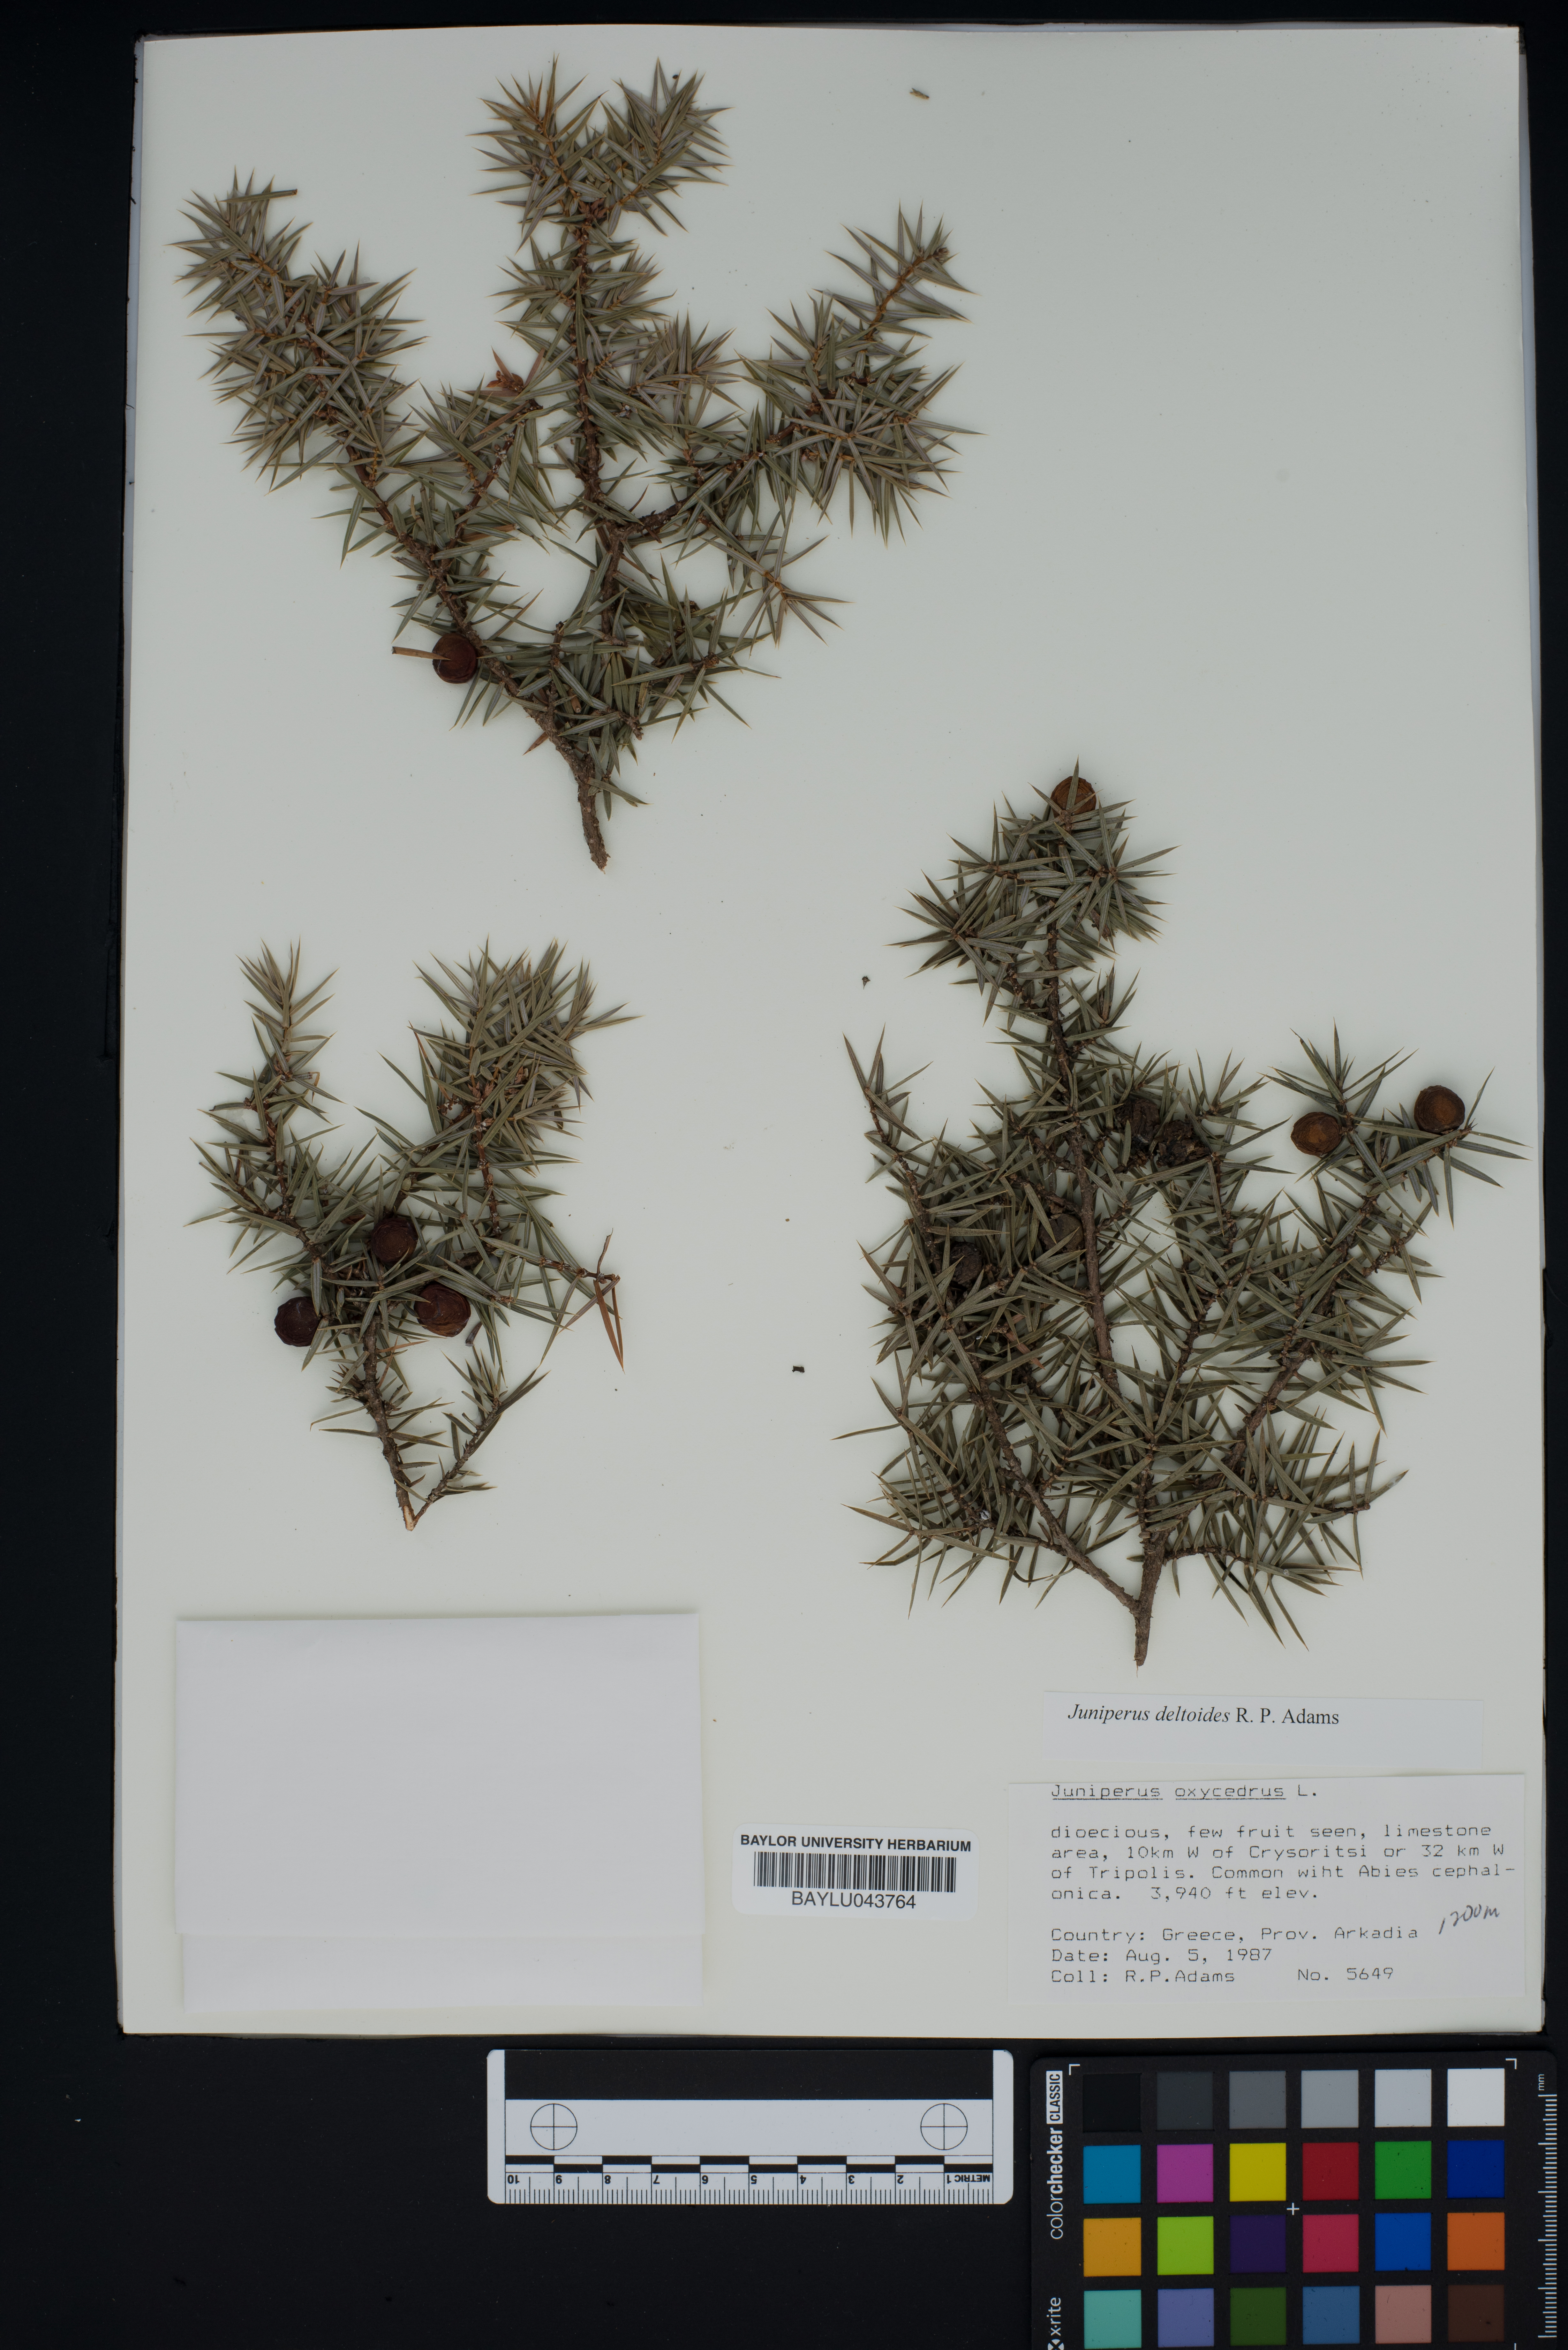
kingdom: Plantae
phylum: Tracheophyta
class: Pinopsida
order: Pinales
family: Cupressaceae
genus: Juniperus
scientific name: Juniperus oxycedrus
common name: Prickly juniper
